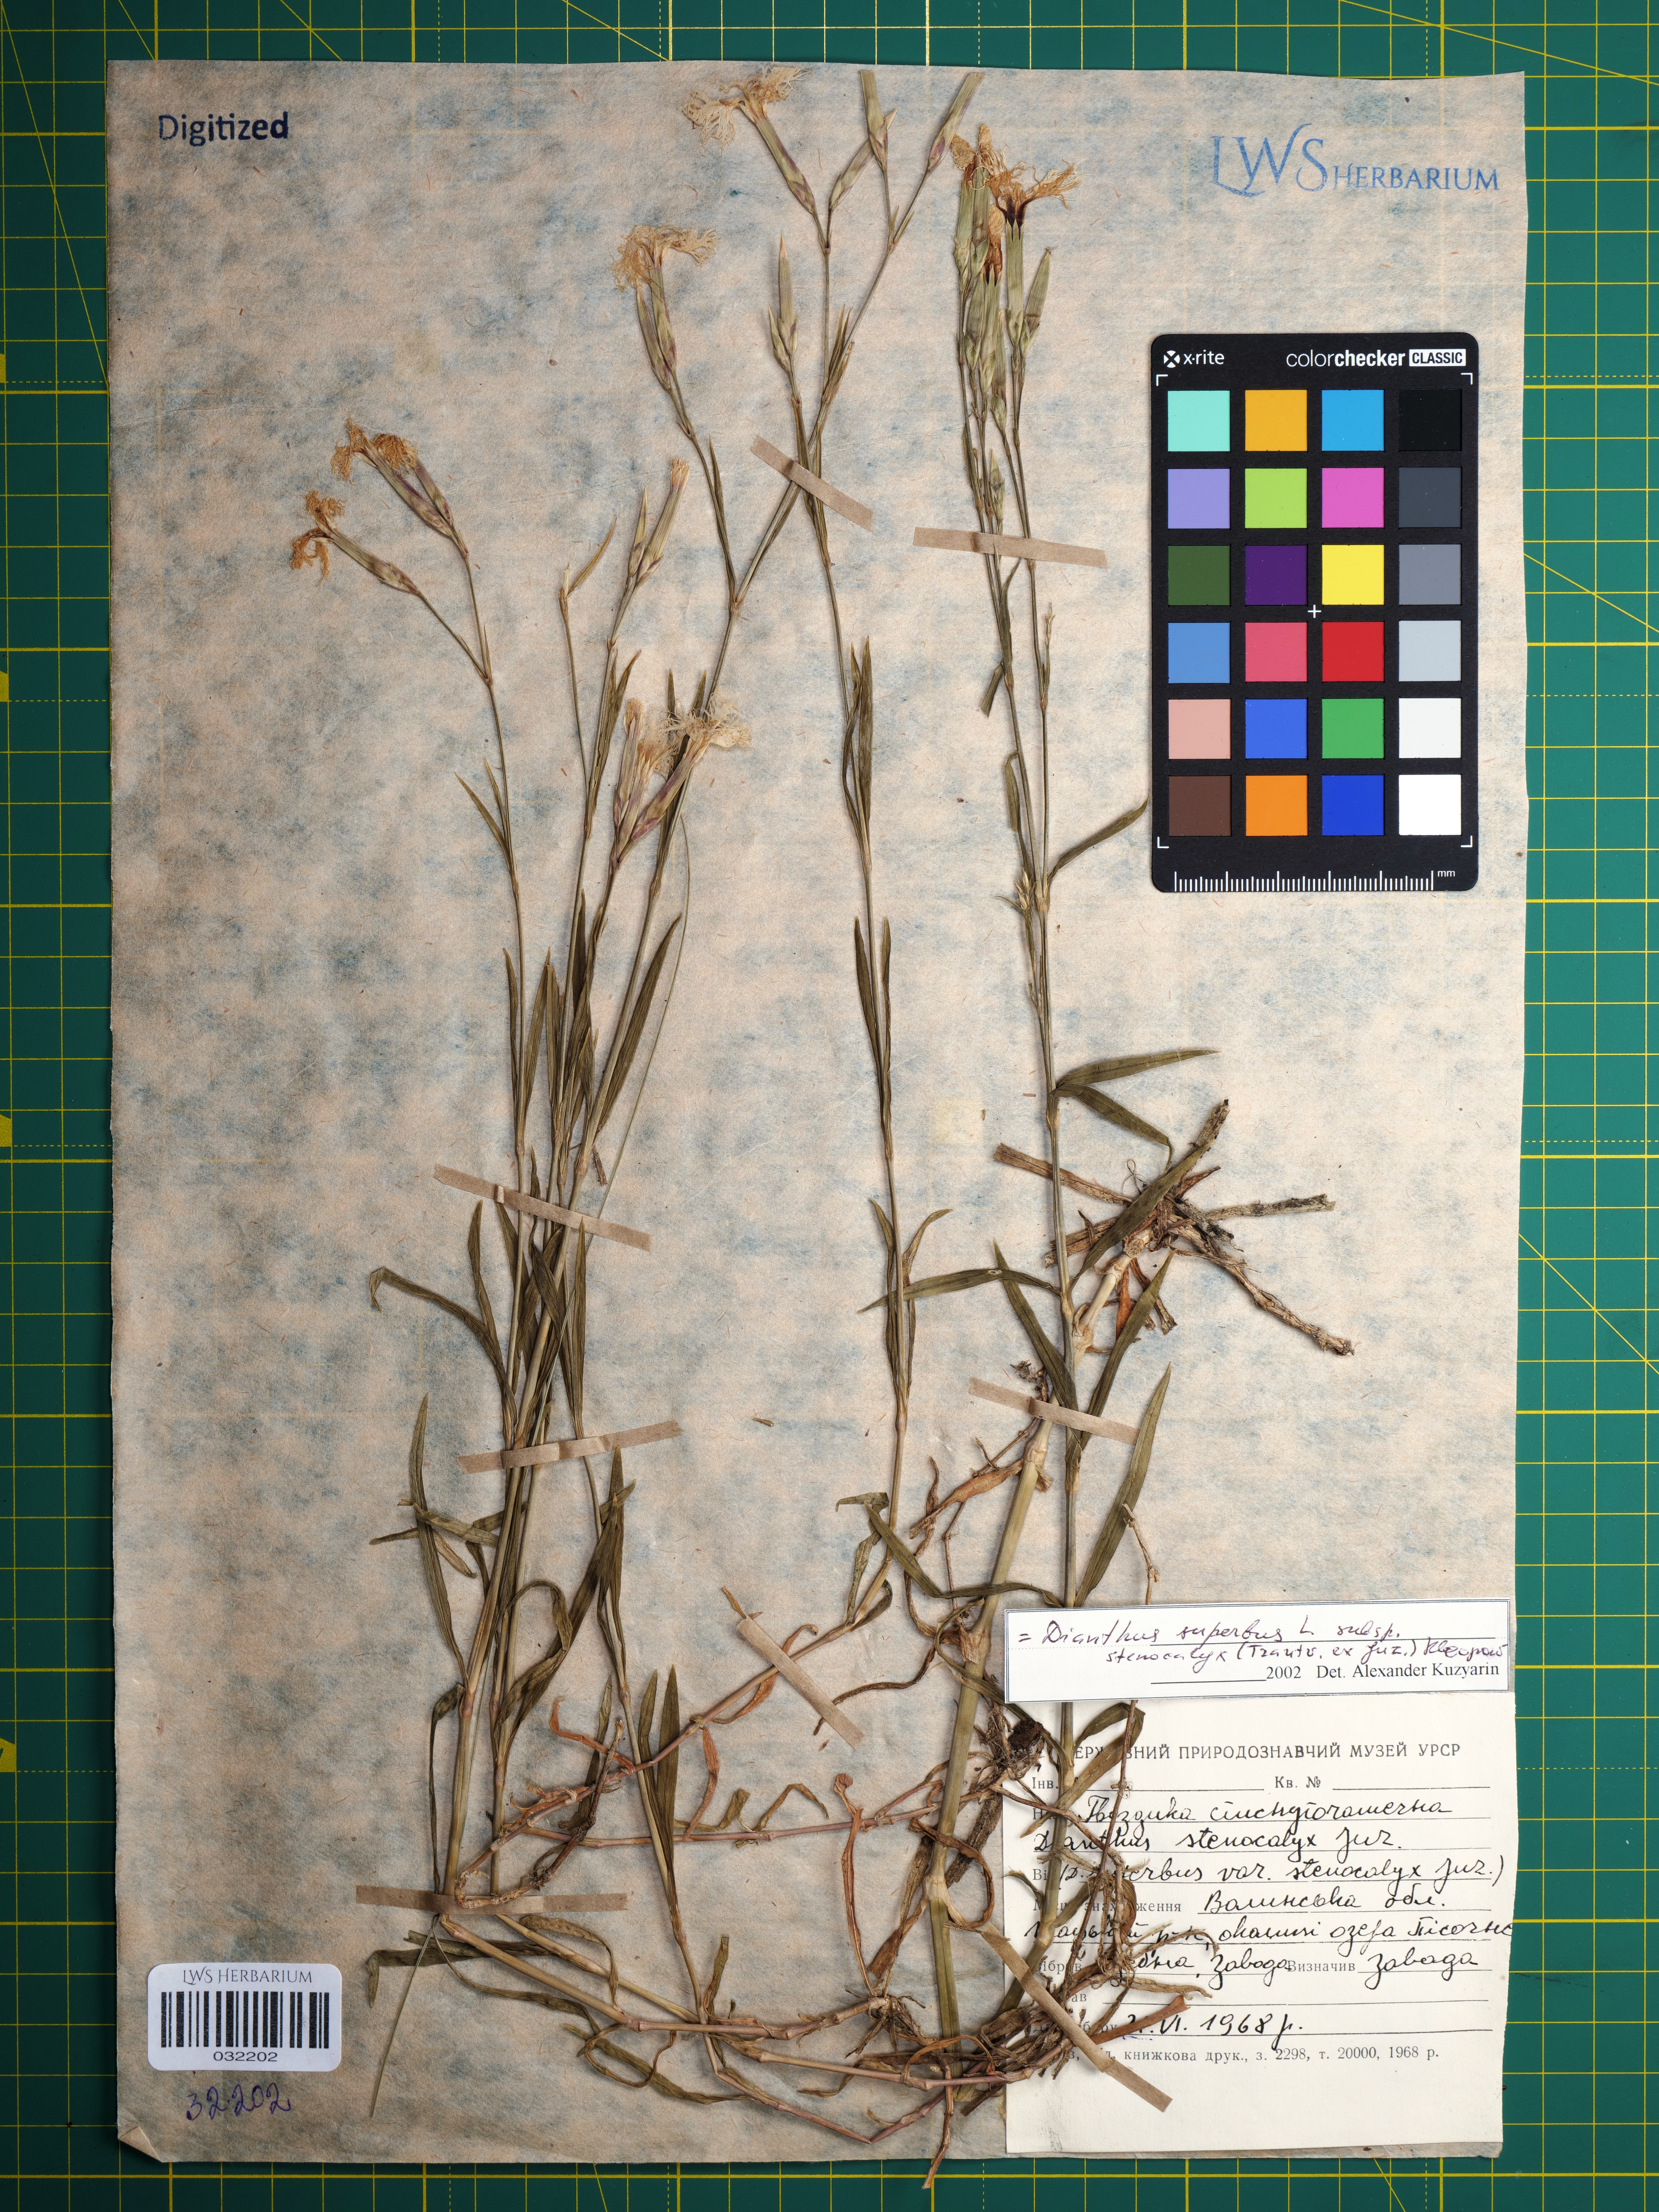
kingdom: Plantae
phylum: Tracheophyta
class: Magnoliopsida
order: Caryophyllales
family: Caryophyllaceae
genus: Dianthus
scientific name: Dianthus superbus
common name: Fringed pink
